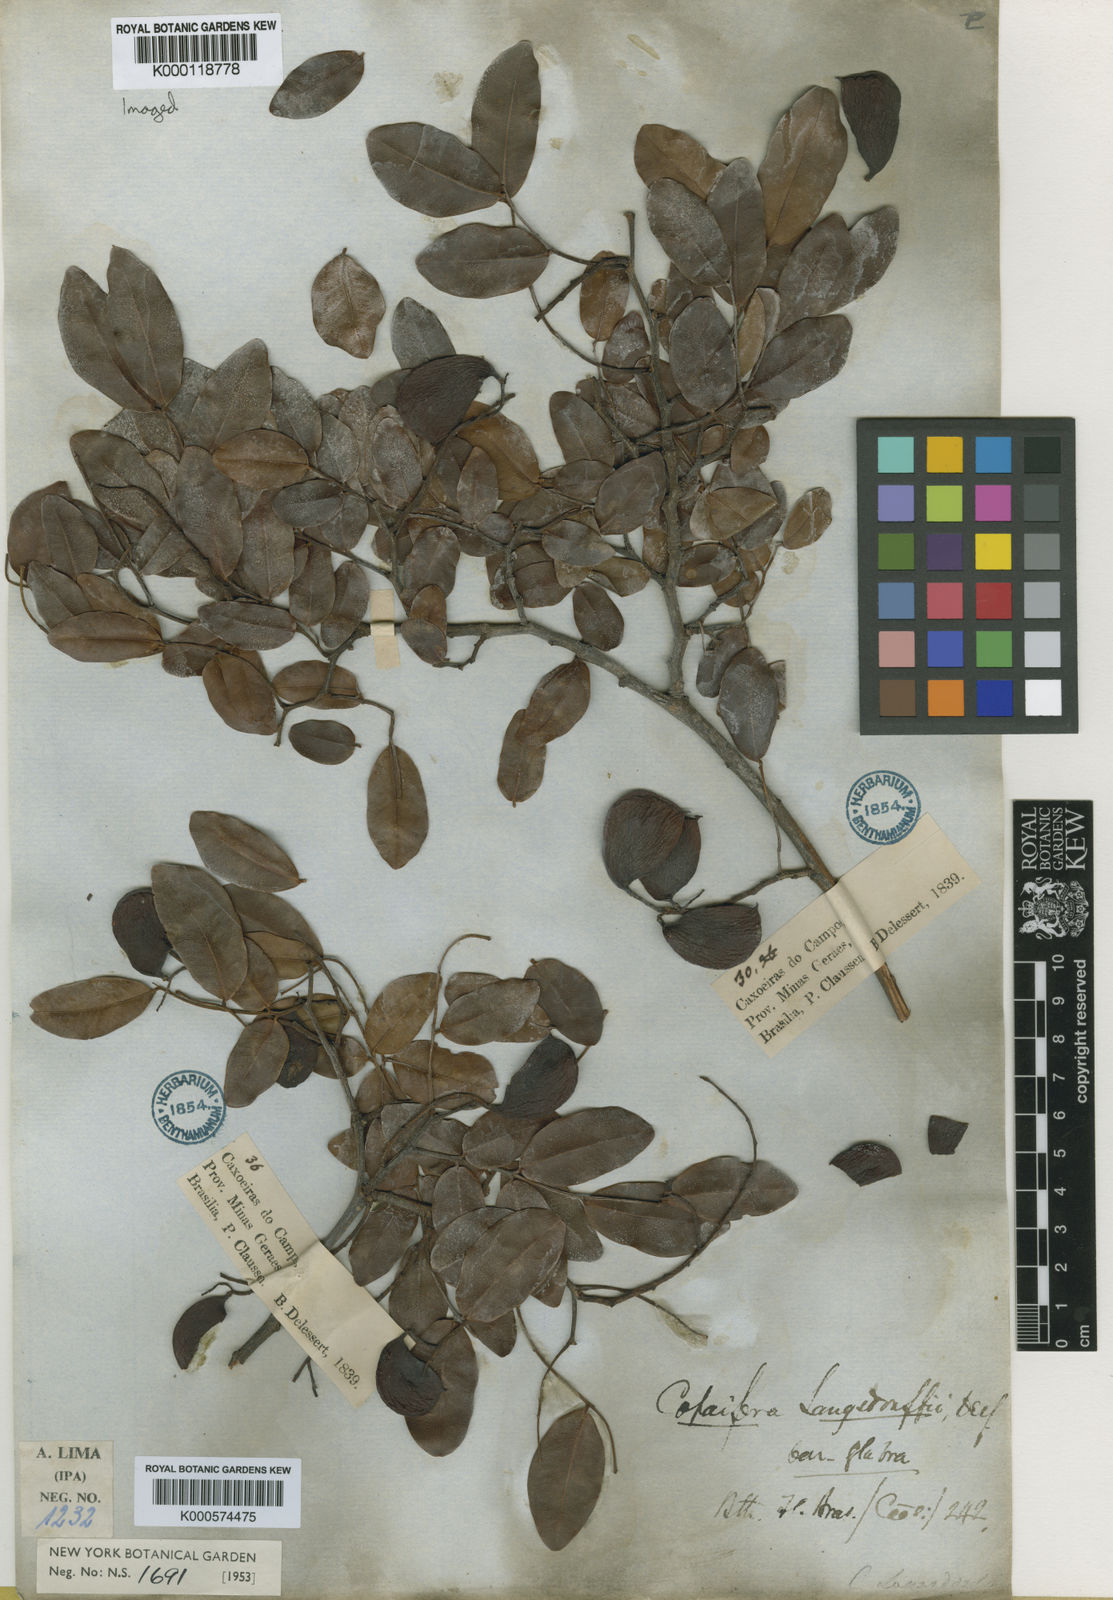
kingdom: Plantae
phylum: Tracheophyta
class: Magnoliopsida
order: Fabales
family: Fabaceae
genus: Copaifera
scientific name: Copaifera langsdorffii
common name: Brazilian diesel tree
